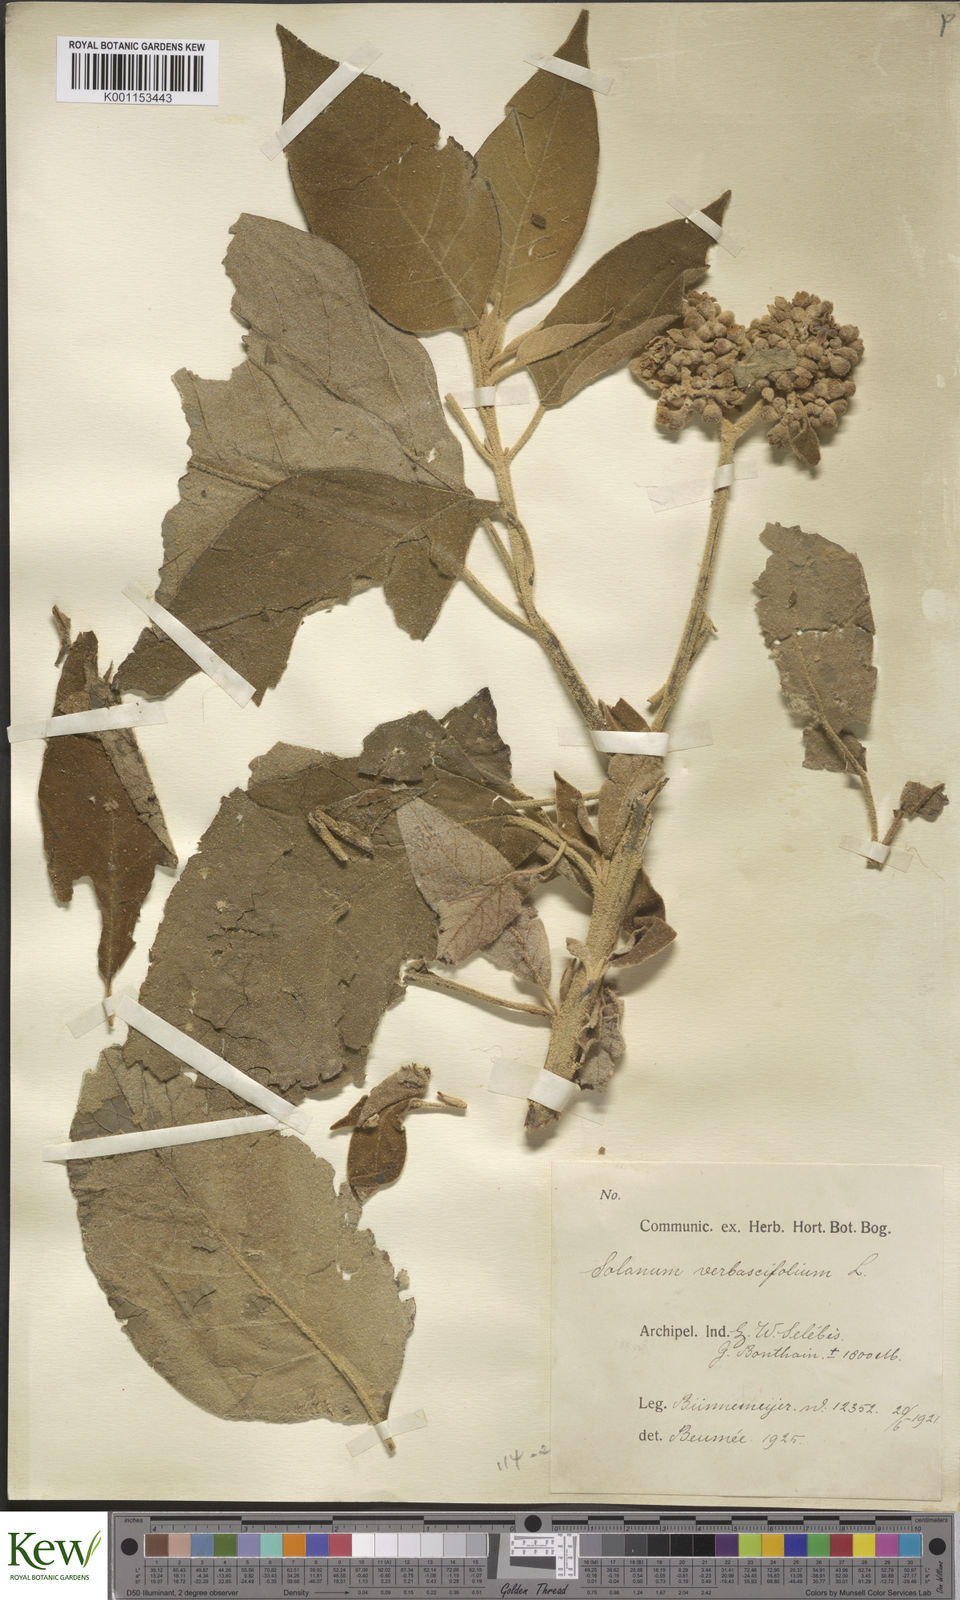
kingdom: Plantae
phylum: Tracheophyta
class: Magnoliopsida
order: Solanales
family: Solanaceae
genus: Solanum
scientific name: Solanum erianthum
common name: Tobacco-tree
